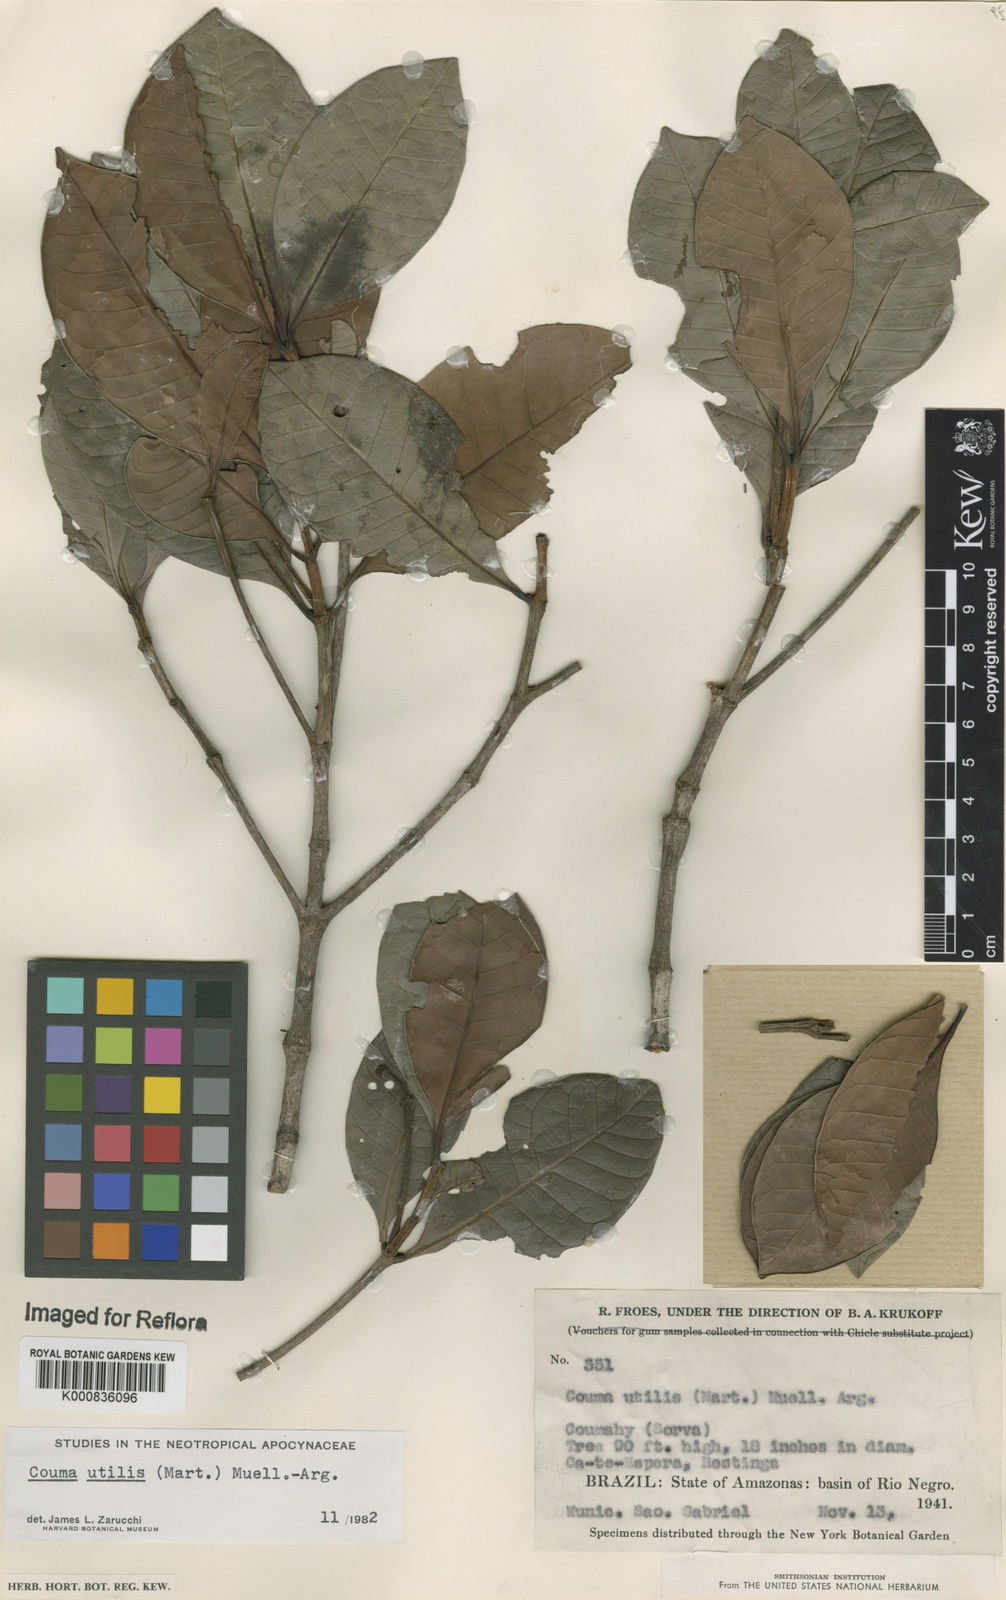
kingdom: Plantae
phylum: Tracheophyta
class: Magnoliopsida
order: Gentianales
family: Apocynaceae
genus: Couma
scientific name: Couma
